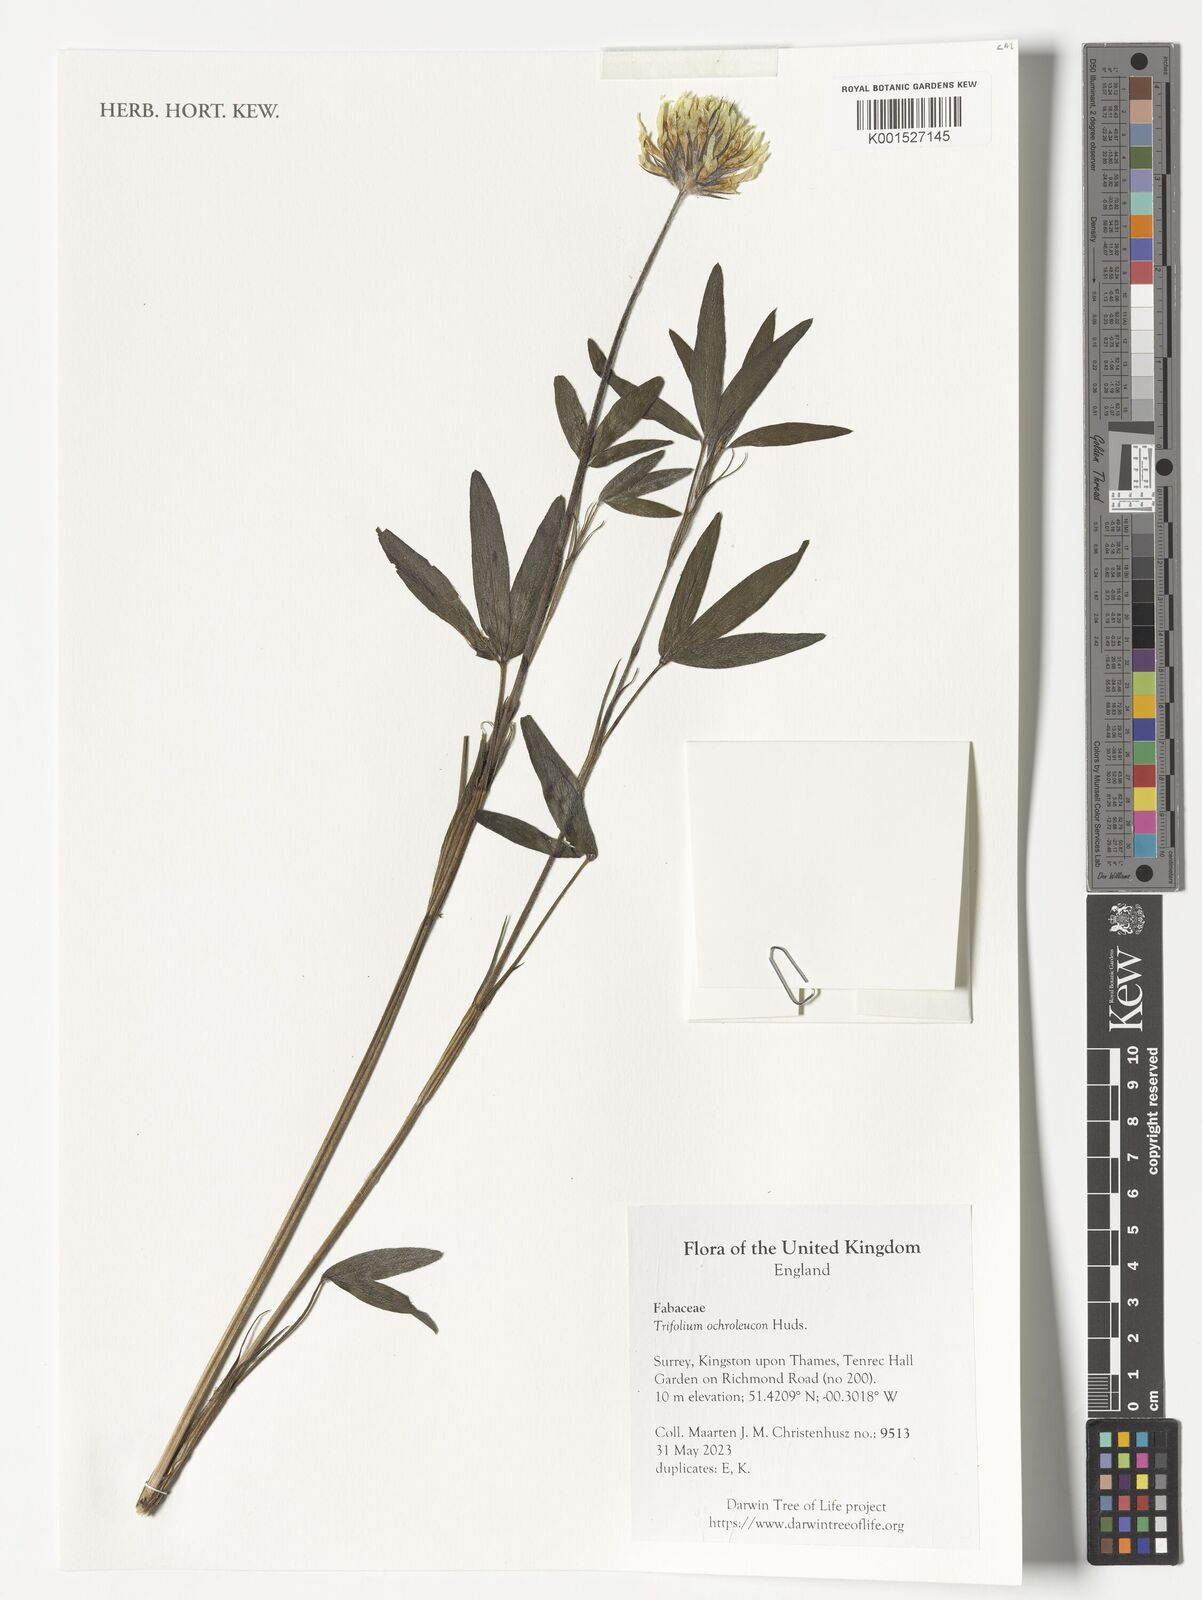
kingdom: Plantae
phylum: Tracheophyta
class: Magnoliopsida
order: Fabales
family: Fabaceae
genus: Trifolium
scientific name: Trifolium
